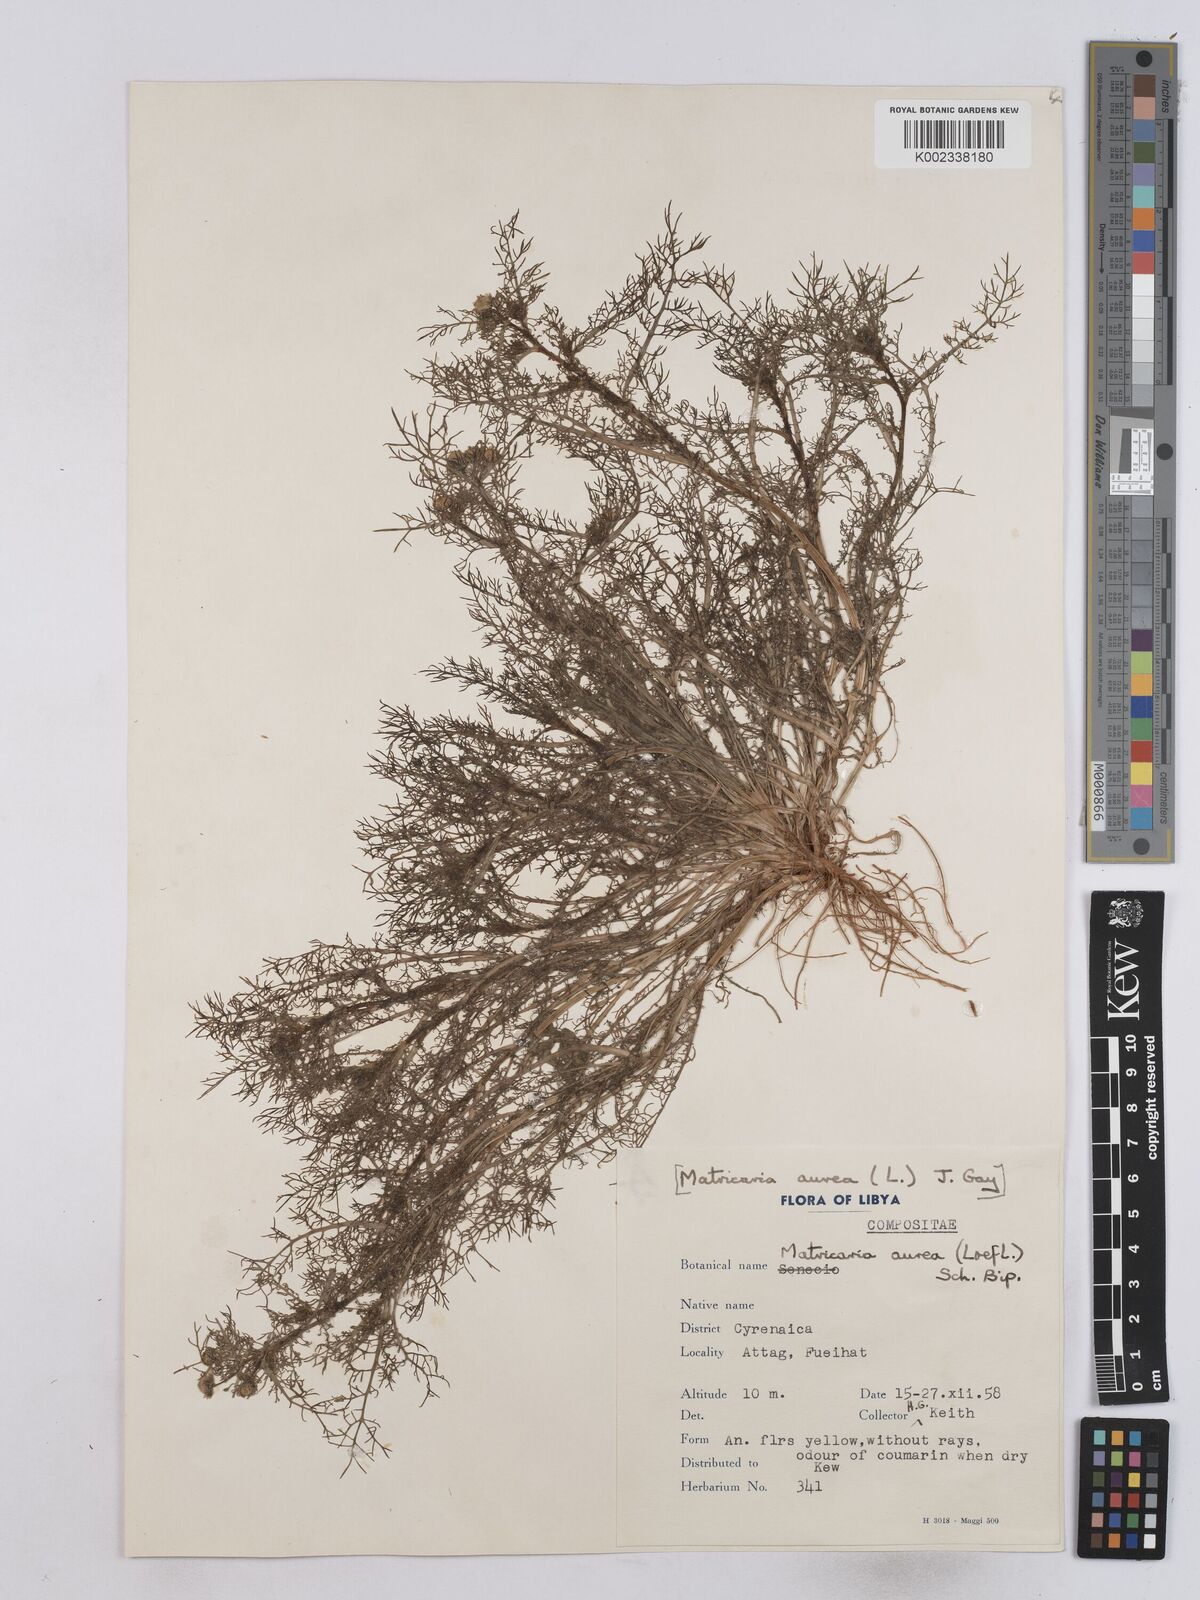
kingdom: Plantae
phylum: Tracheophyta
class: Magnoliopsida
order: Asterales
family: Asteraceae
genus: Matricaria
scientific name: Matricaria aurea
